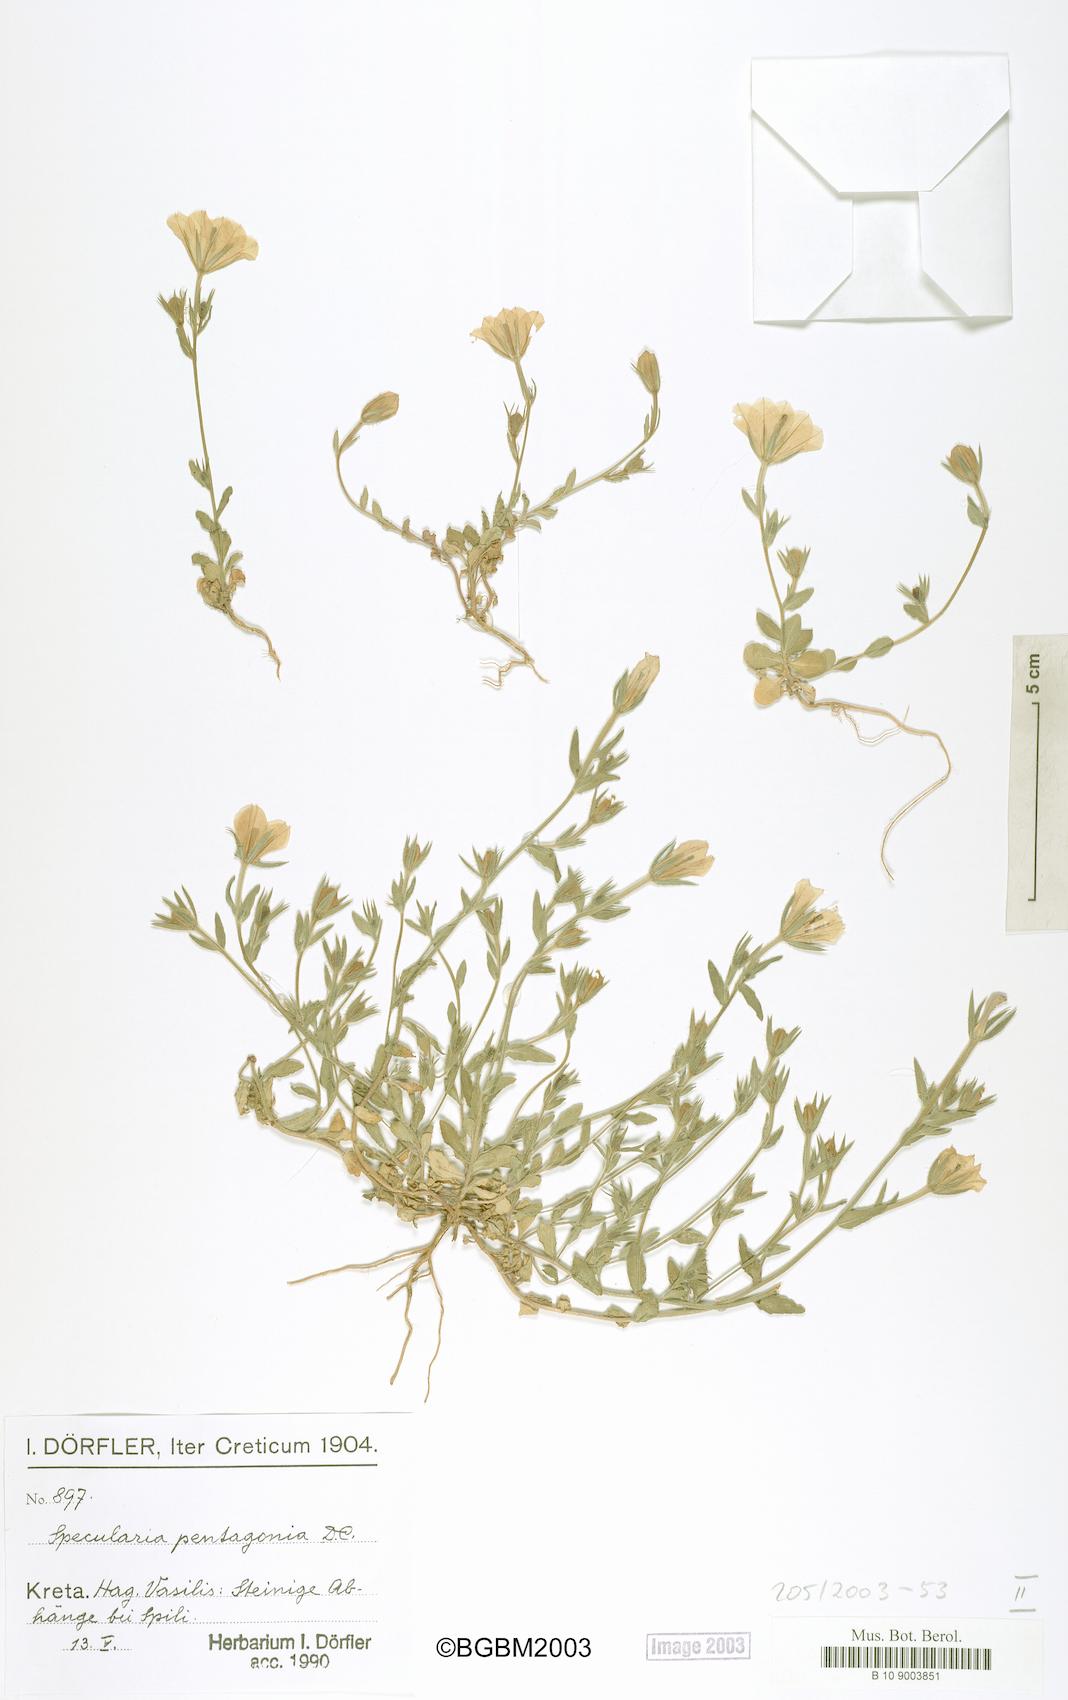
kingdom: Plantae
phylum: Tracheophyta
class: Magnoliopsida
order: Asterales
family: Campanulaceae
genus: Legousia
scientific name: Legousia pentagonia
